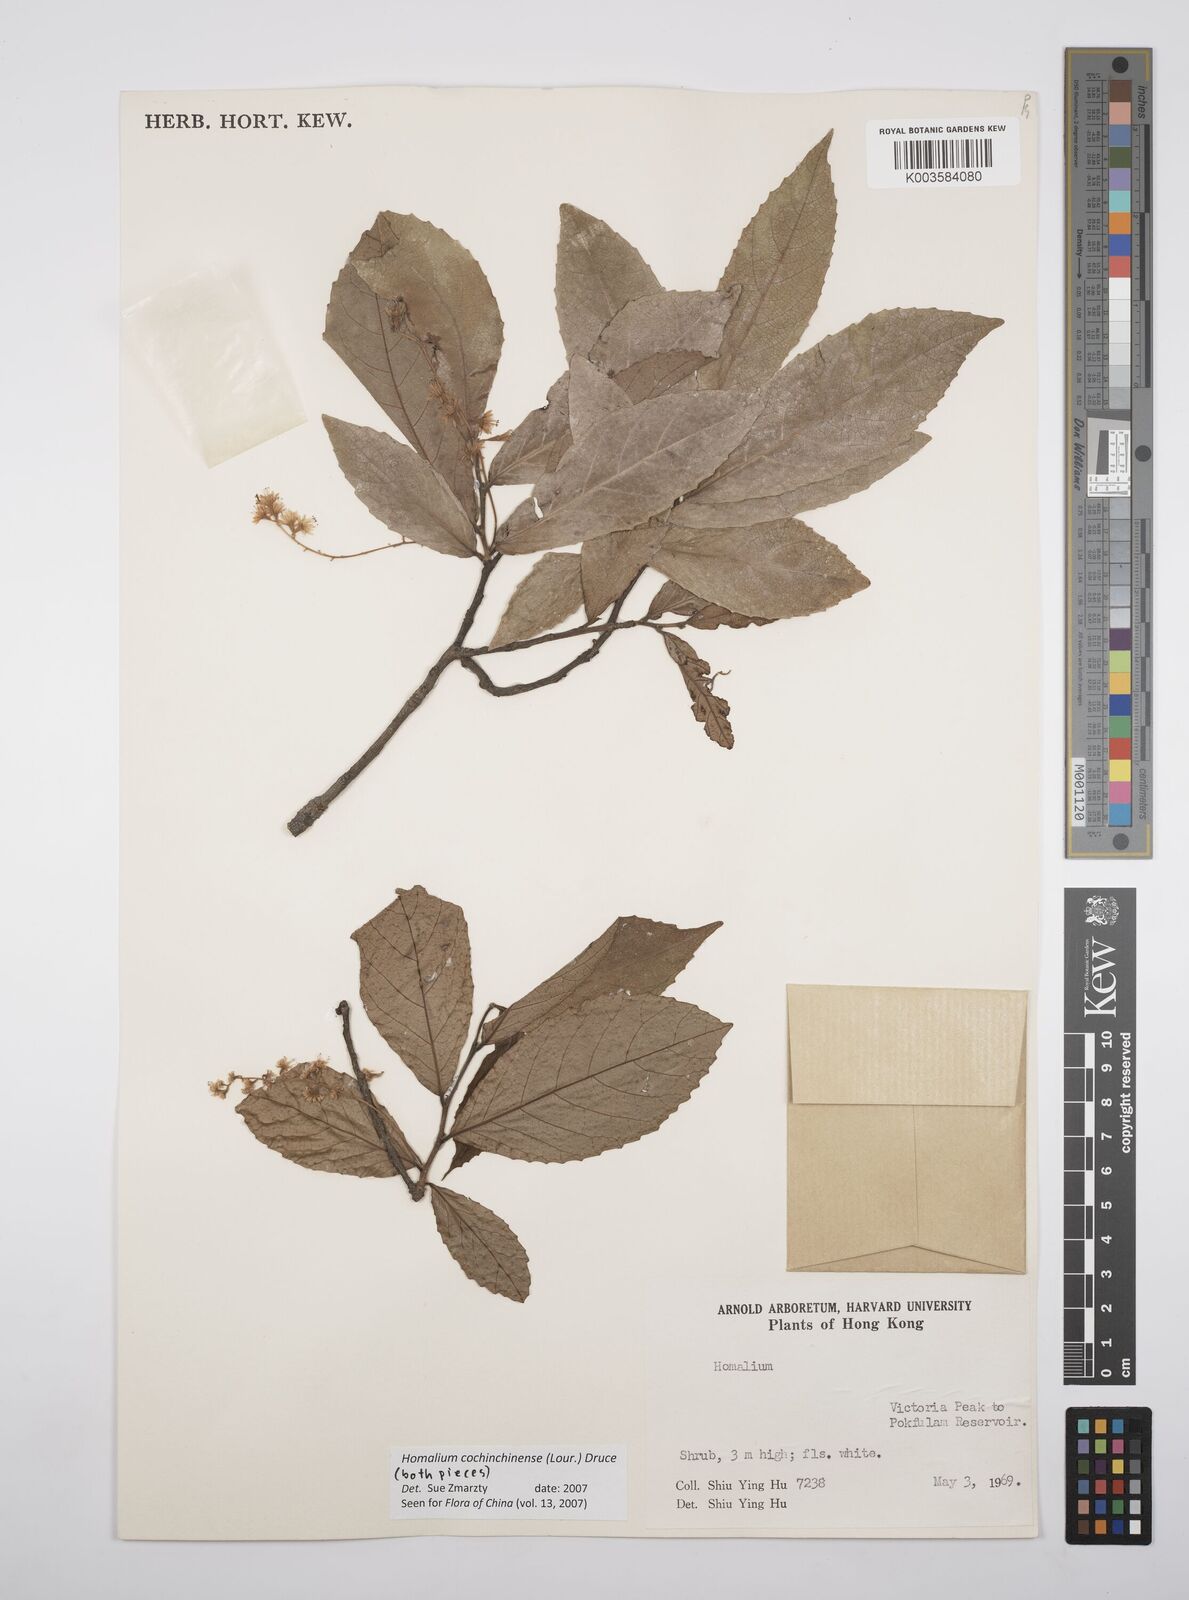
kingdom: Plantae
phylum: Tracheophyta
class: Magnoliopsida
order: Malpighiales
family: Salicaceae
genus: Homalium
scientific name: Homalium cochinchinensis
